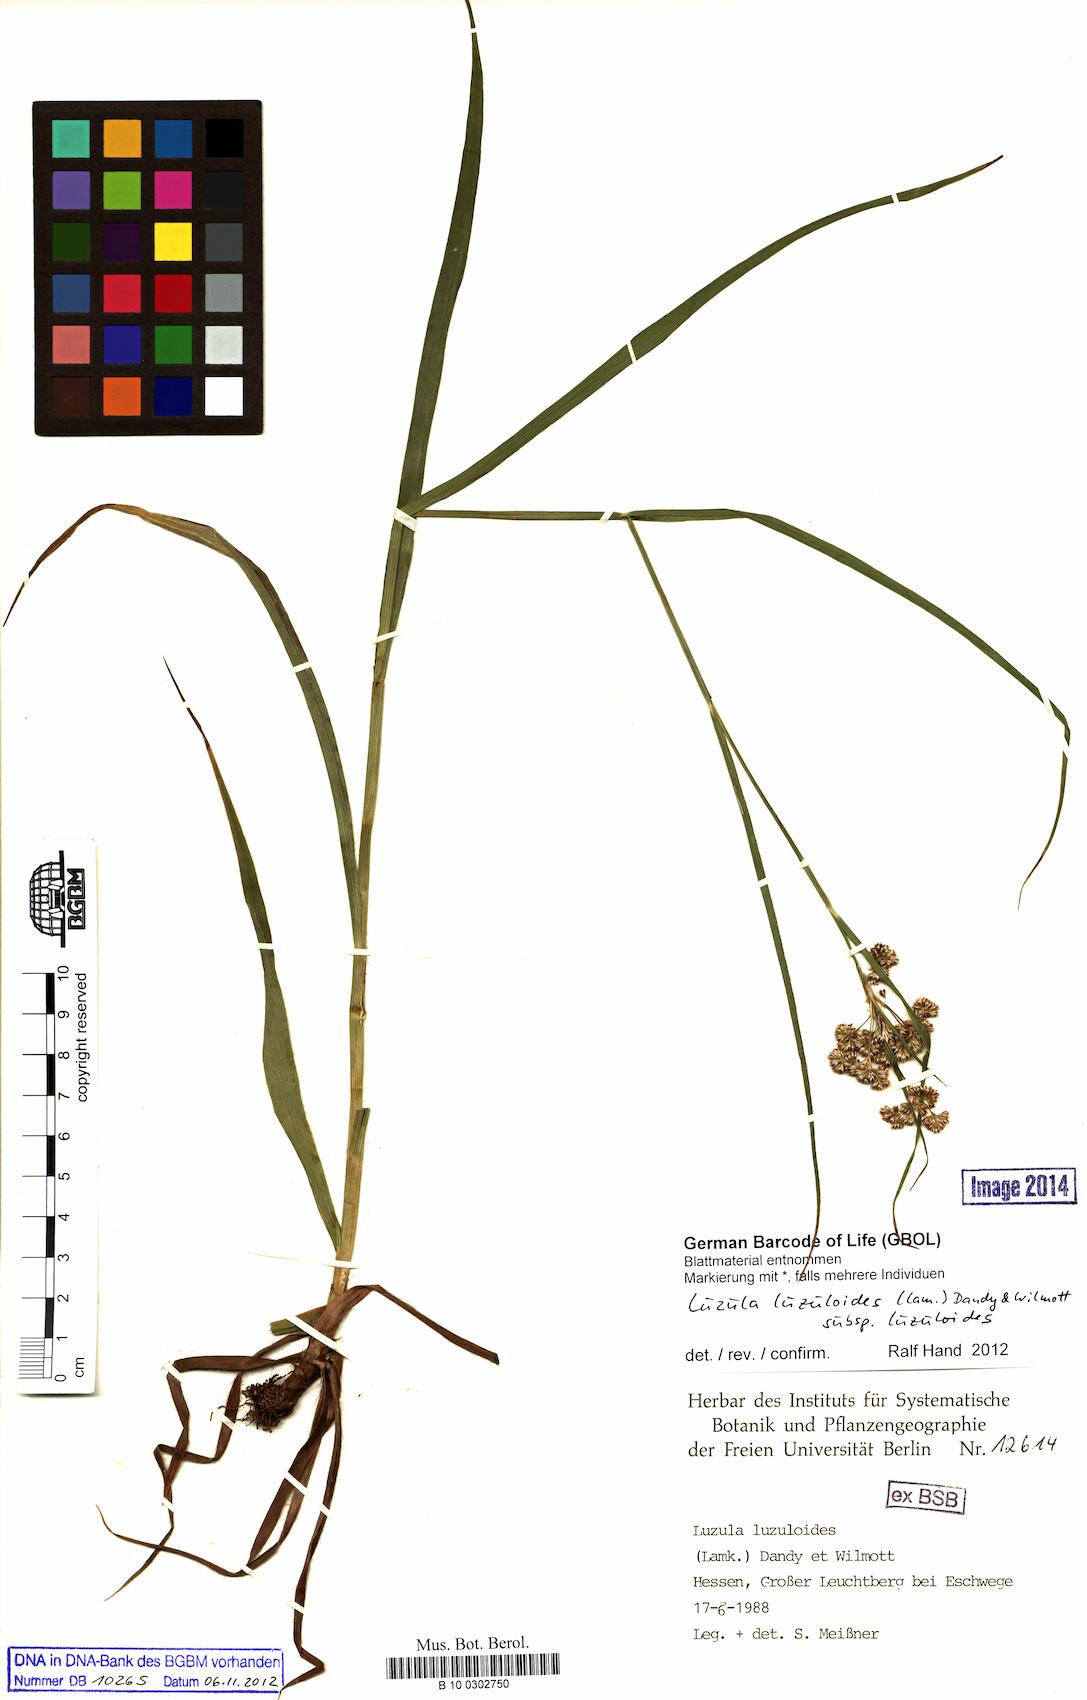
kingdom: Plantae
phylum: Tracheophyta
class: Liliopsida
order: Poales
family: Juncaceae
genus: Luzula
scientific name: Luzula luzuloides
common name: White wood-rush
